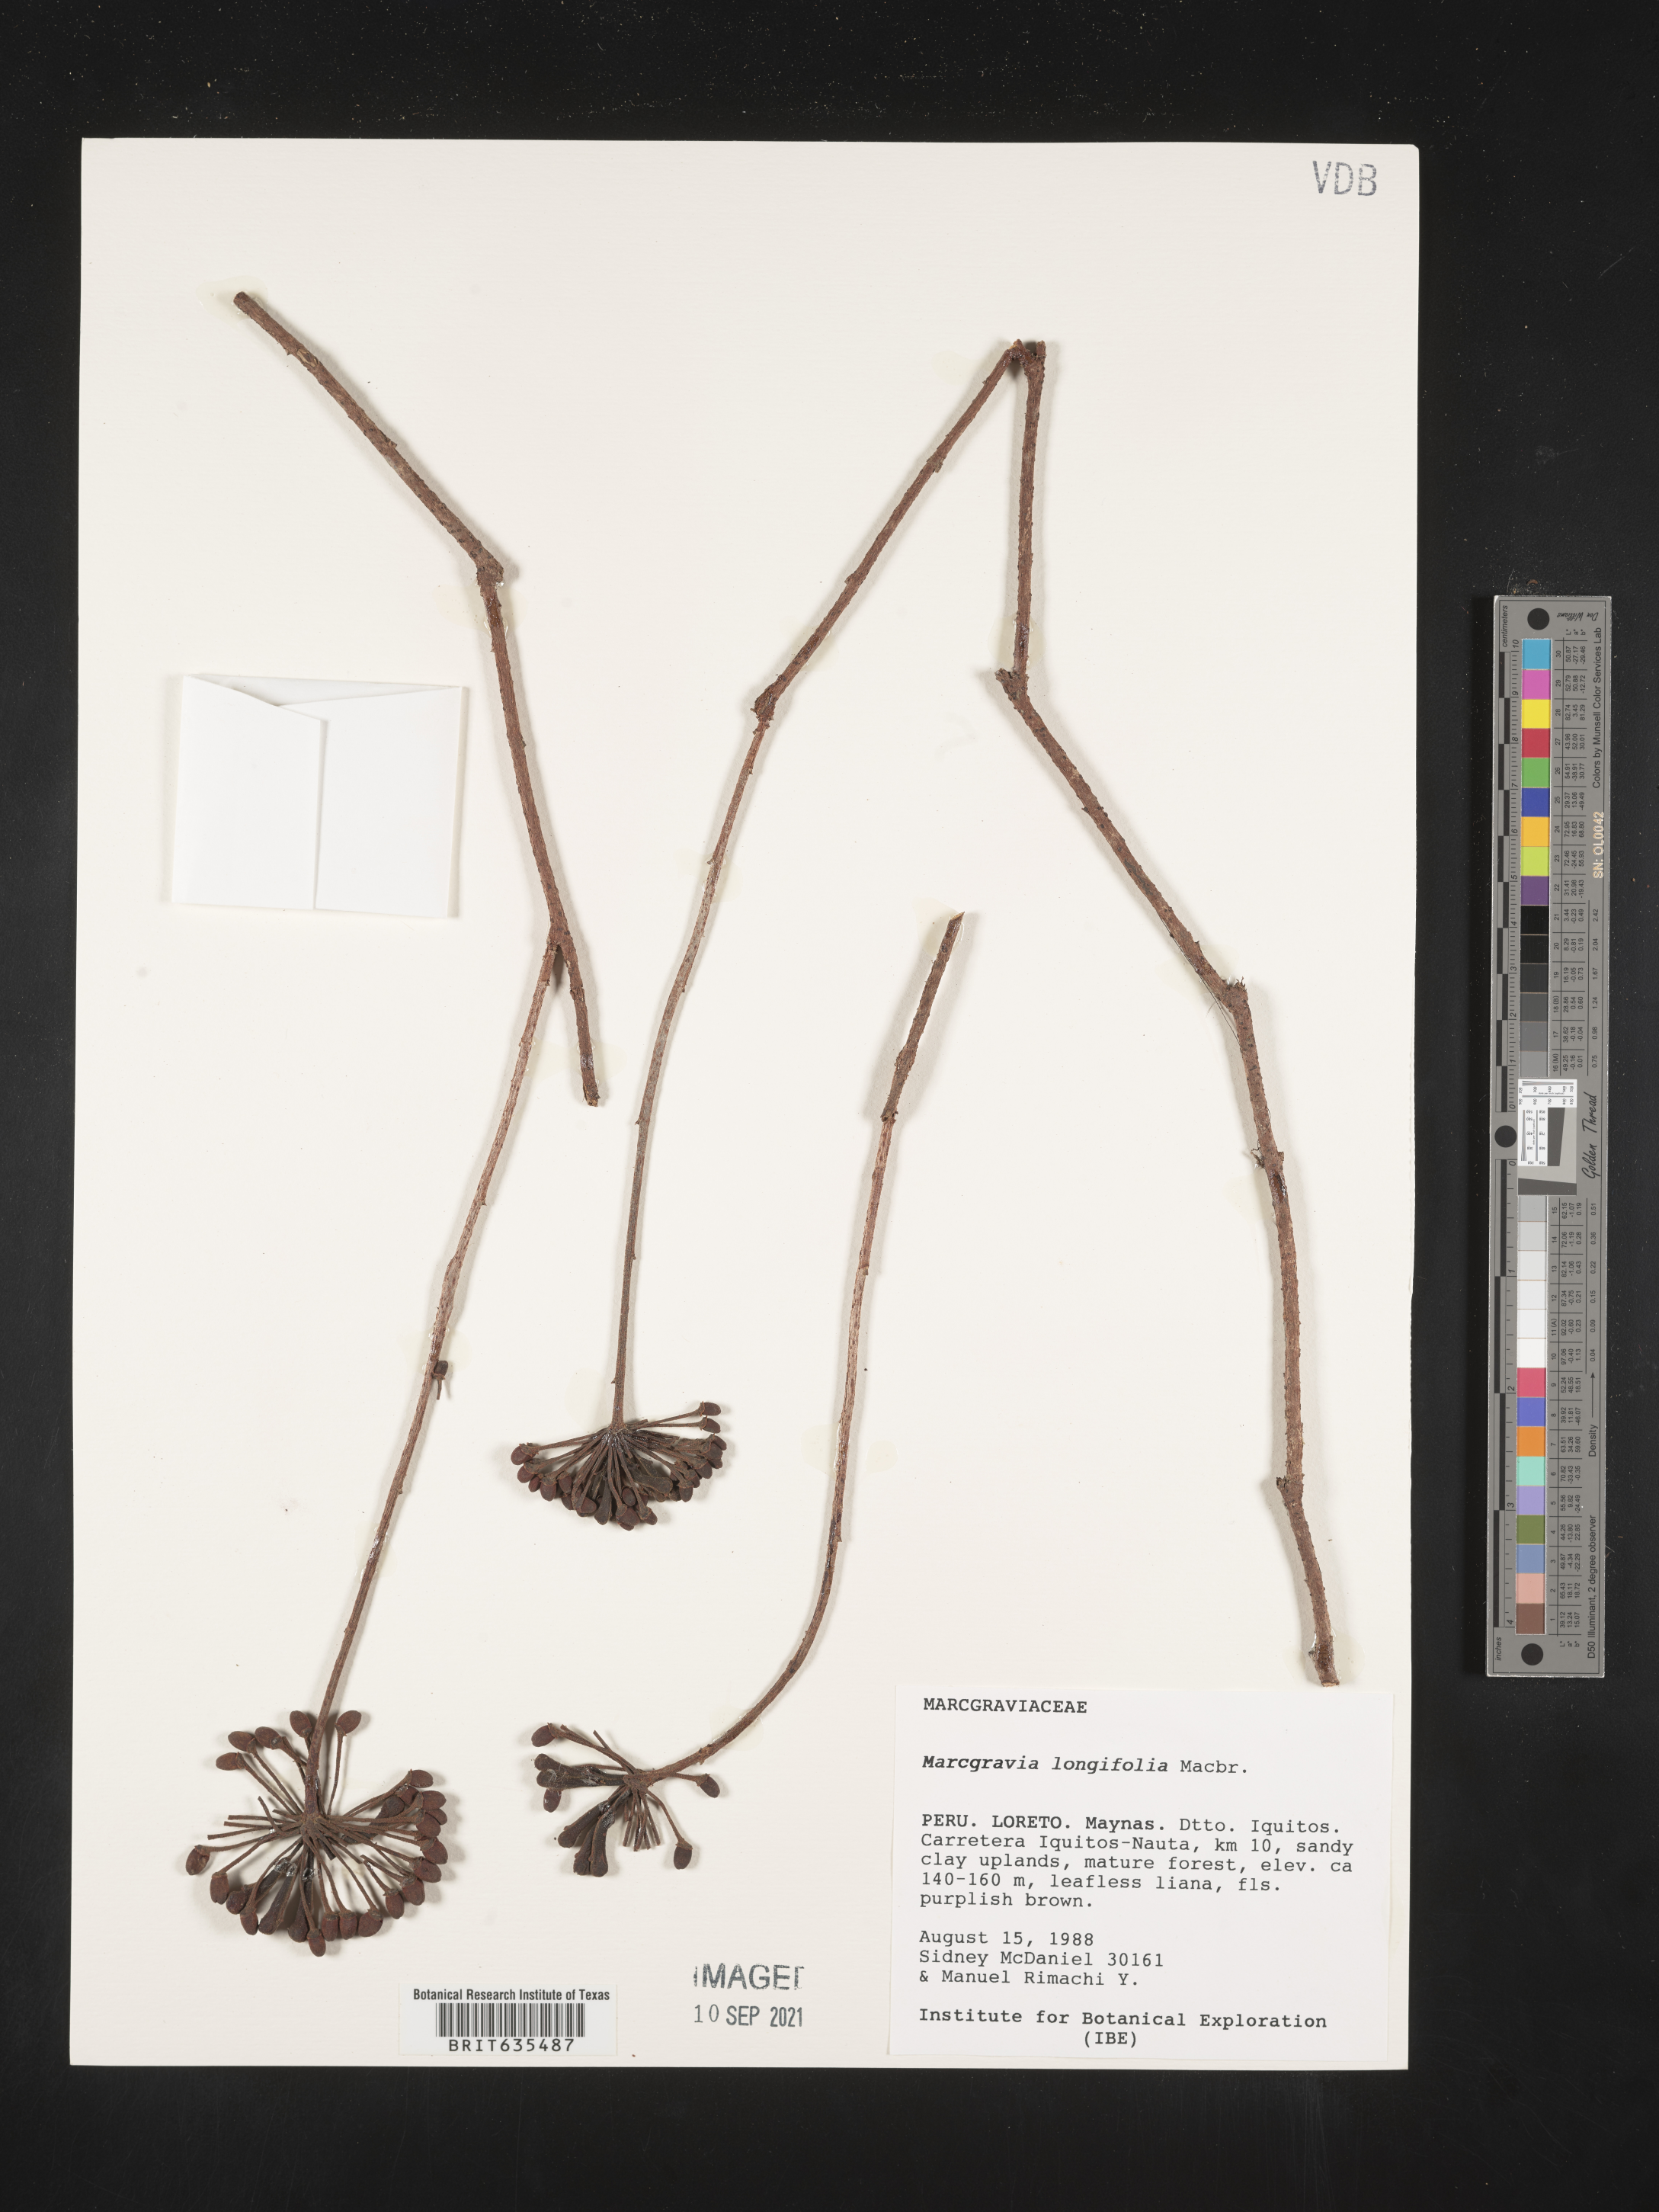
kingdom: Plantae
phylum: Tracheophyta
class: Magnoliopsida
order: Ericales
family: Marcgraviaceae
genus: Marcgravia
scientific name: Marcgravia
